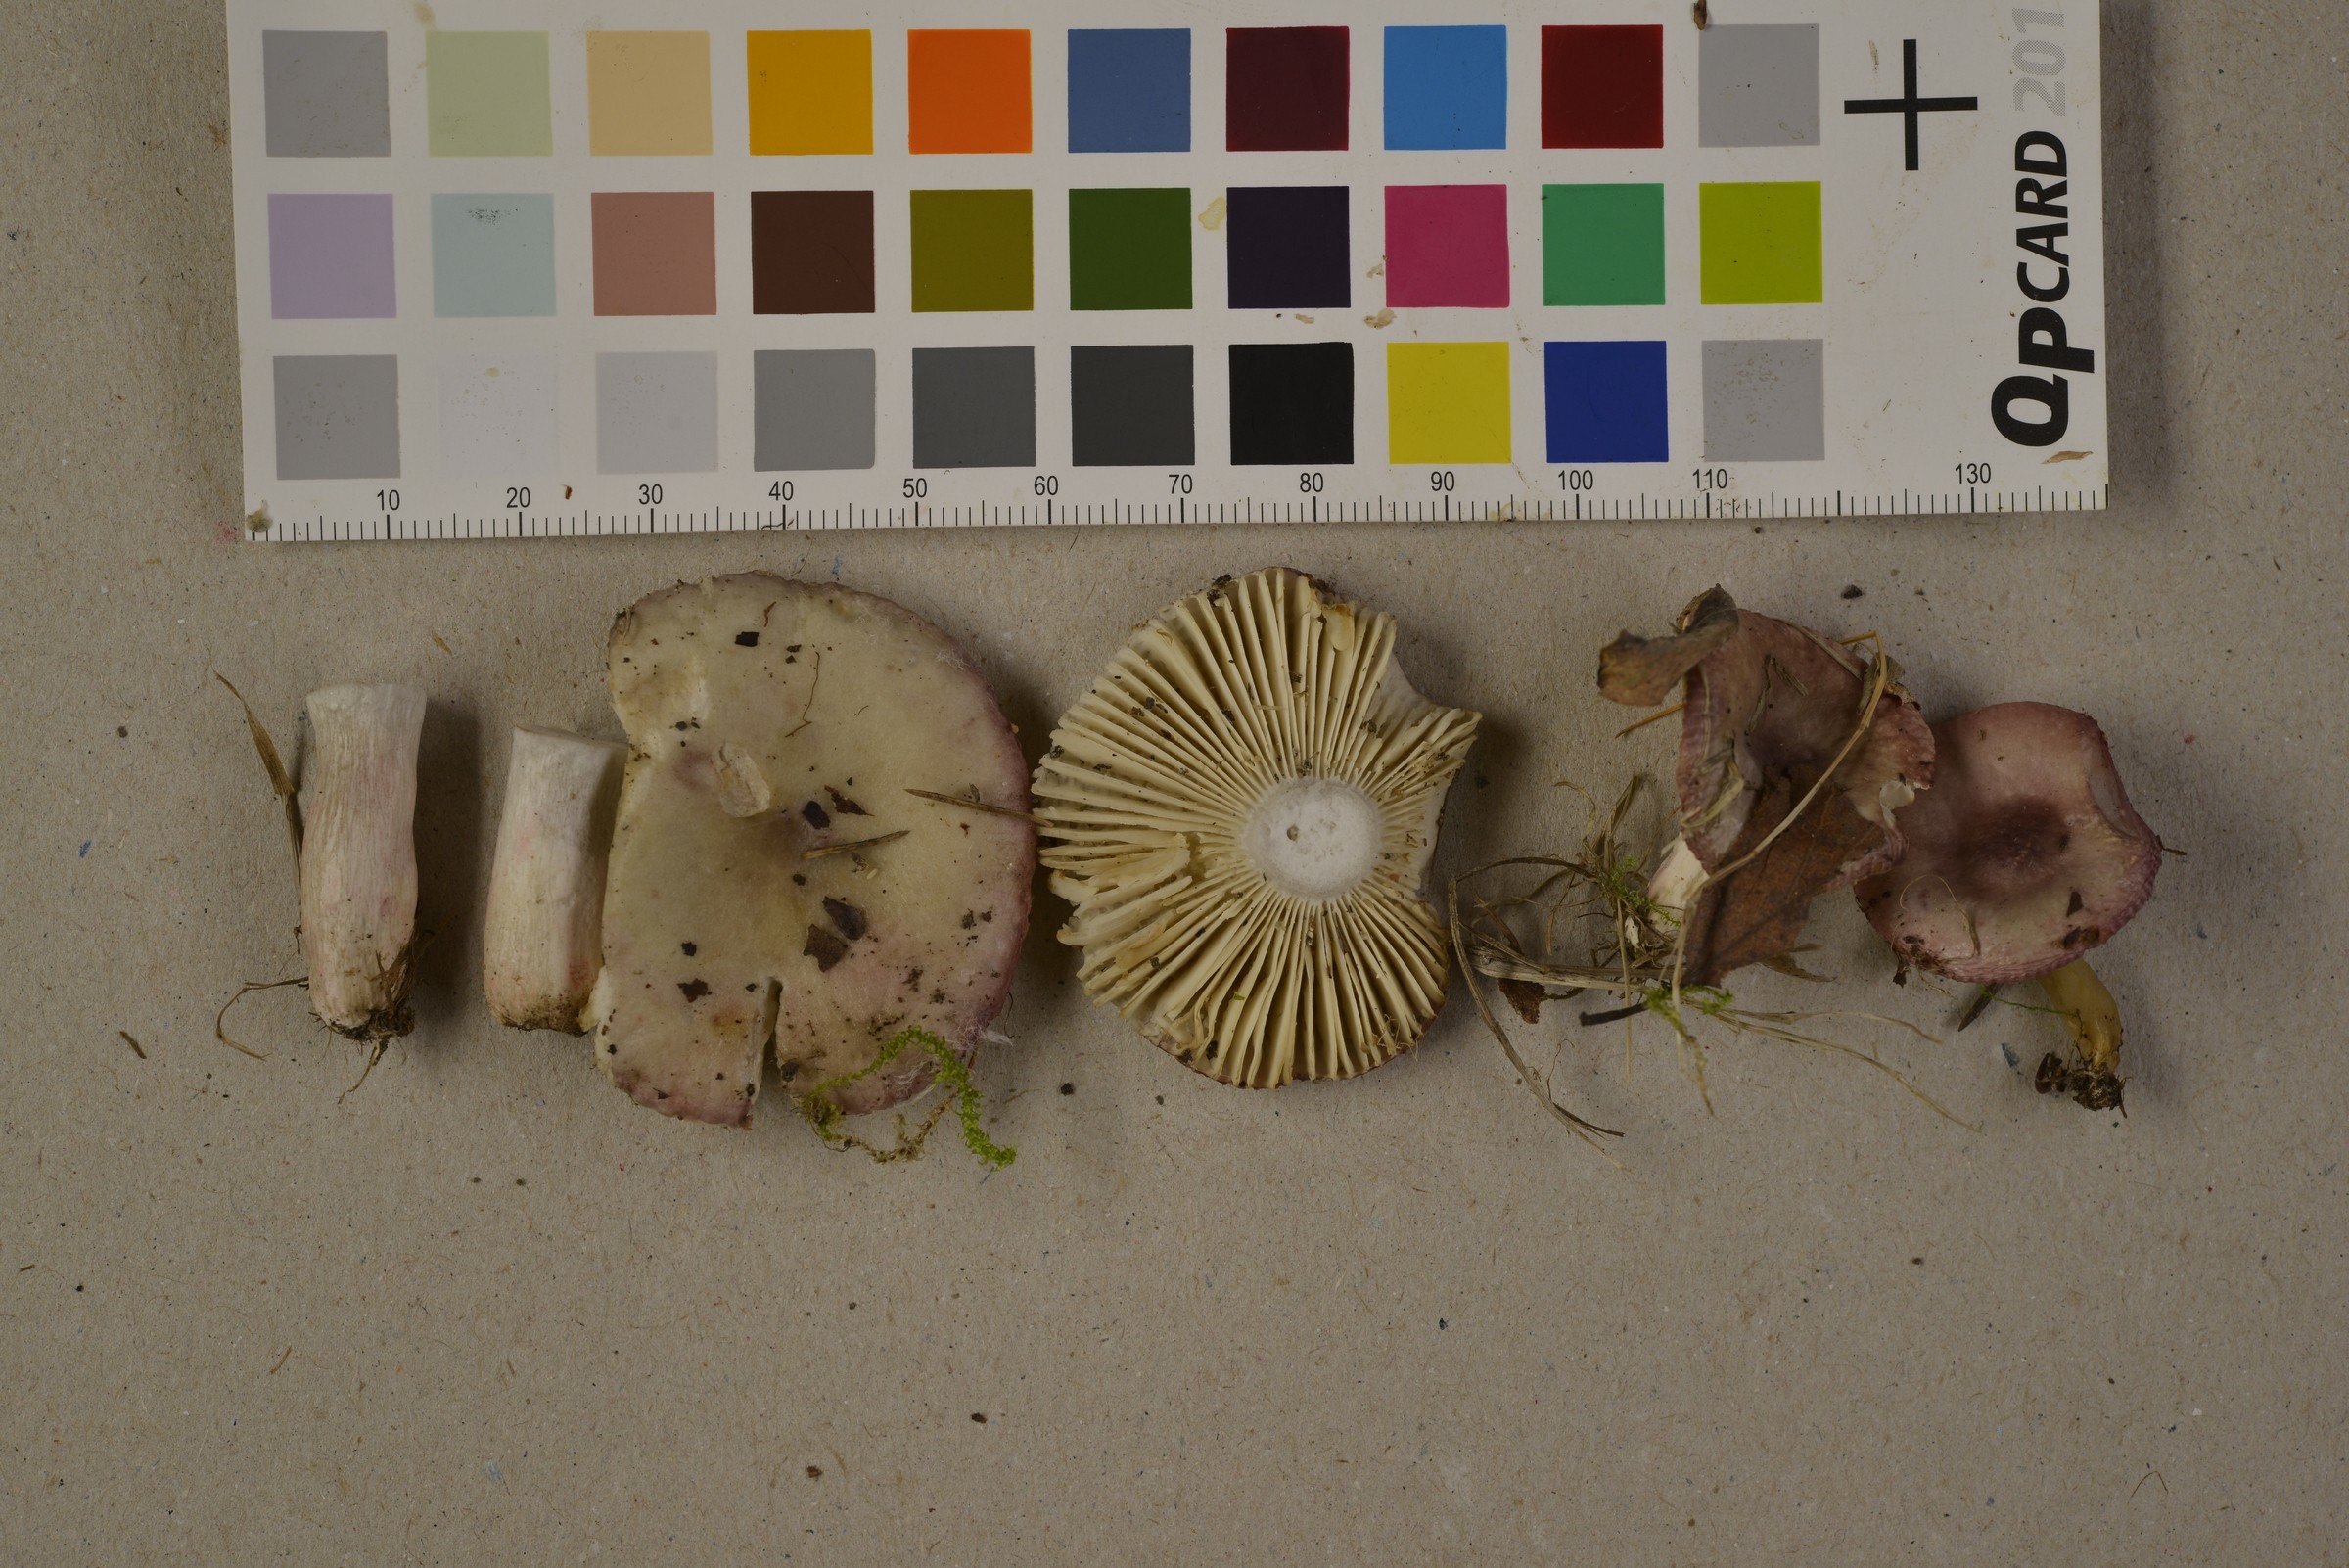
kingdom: Fungi
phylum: Basidiomycota
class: Agaricomycetes
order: Russulales
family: Russulaceae
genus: Russula
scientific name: Russula gracillima
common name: Slender brittlegill
